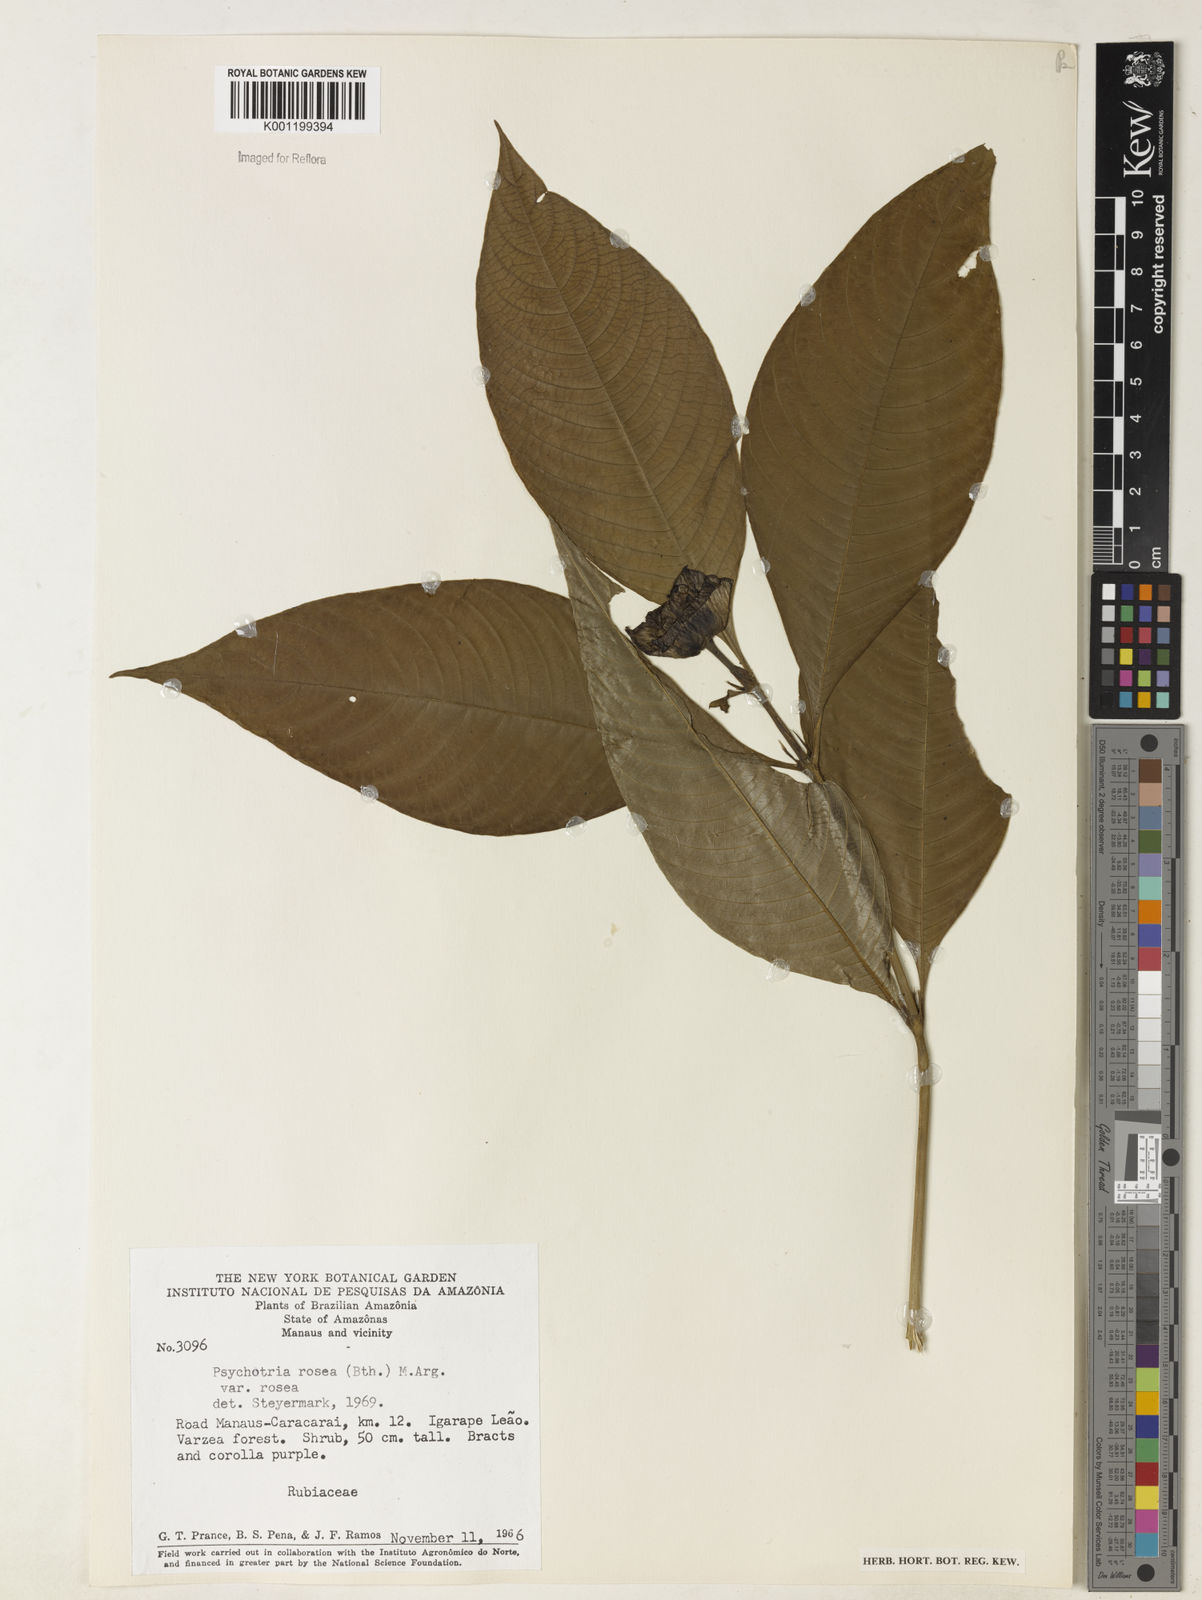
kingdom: Plantae
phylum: Tracheophyta
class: Magnoliopsida
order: Gentianales
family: Rubiaceae
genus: Psychotria
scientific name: Psychotria
